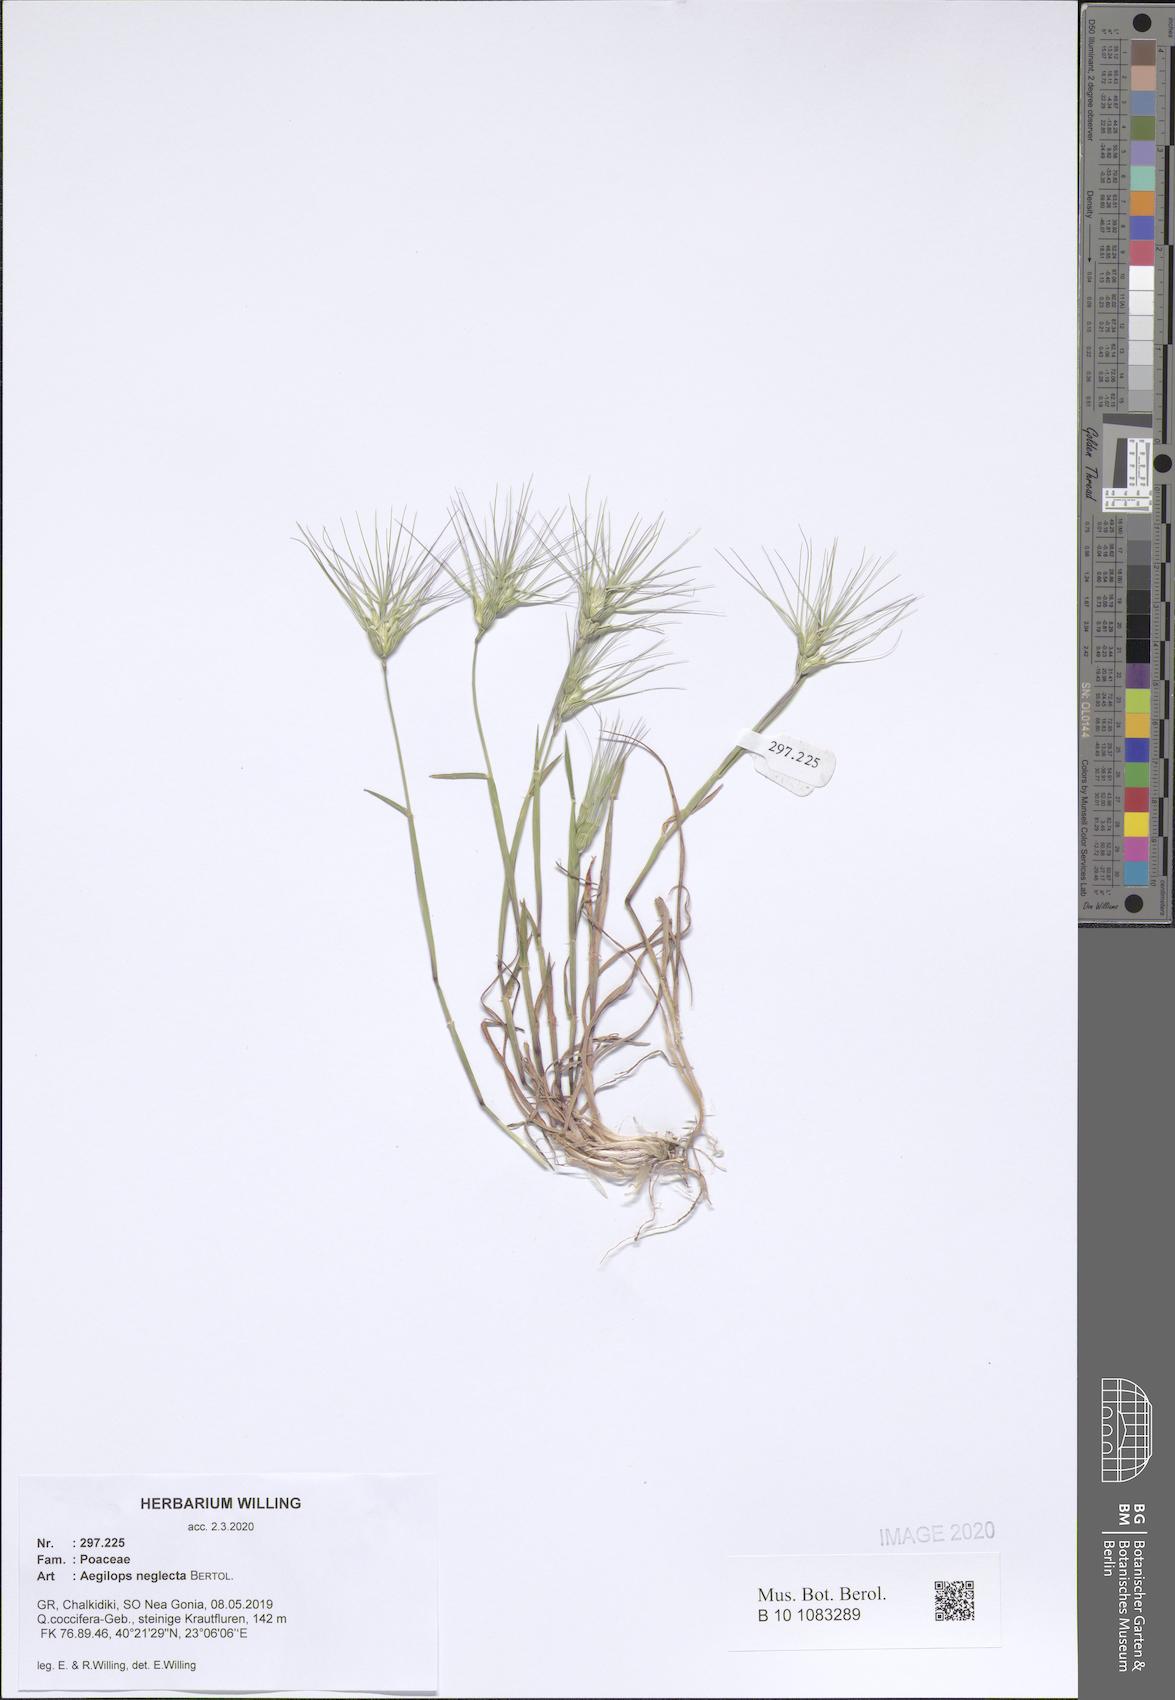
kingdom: Plantae
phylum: Tracheophyta
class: Liliopsida
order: Poales
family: Poaceae
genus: Aegilops
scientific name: Aegilops neglecta
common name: Three-awn goat grass
